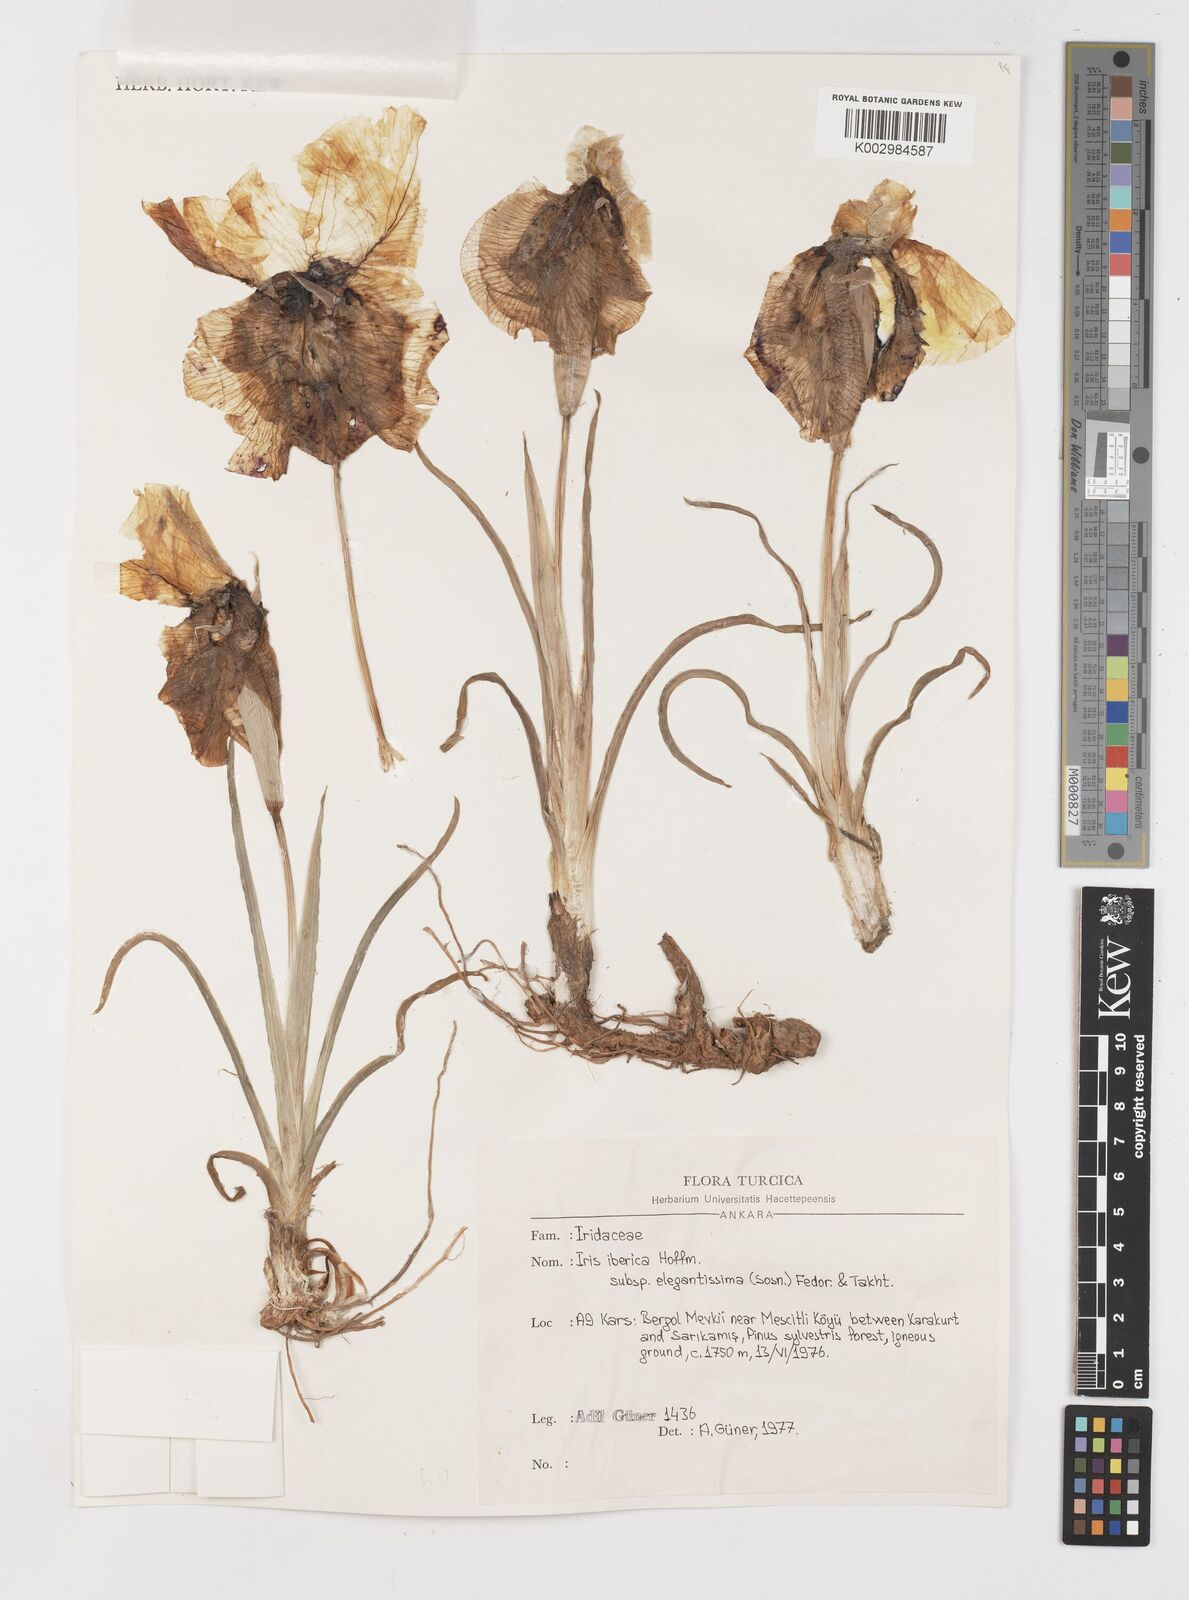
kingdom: Plantae
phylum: Tracheophyta
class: Liliopsida
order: Asparagales
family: Iridaceae
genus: Iris
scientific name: Iris iberica
